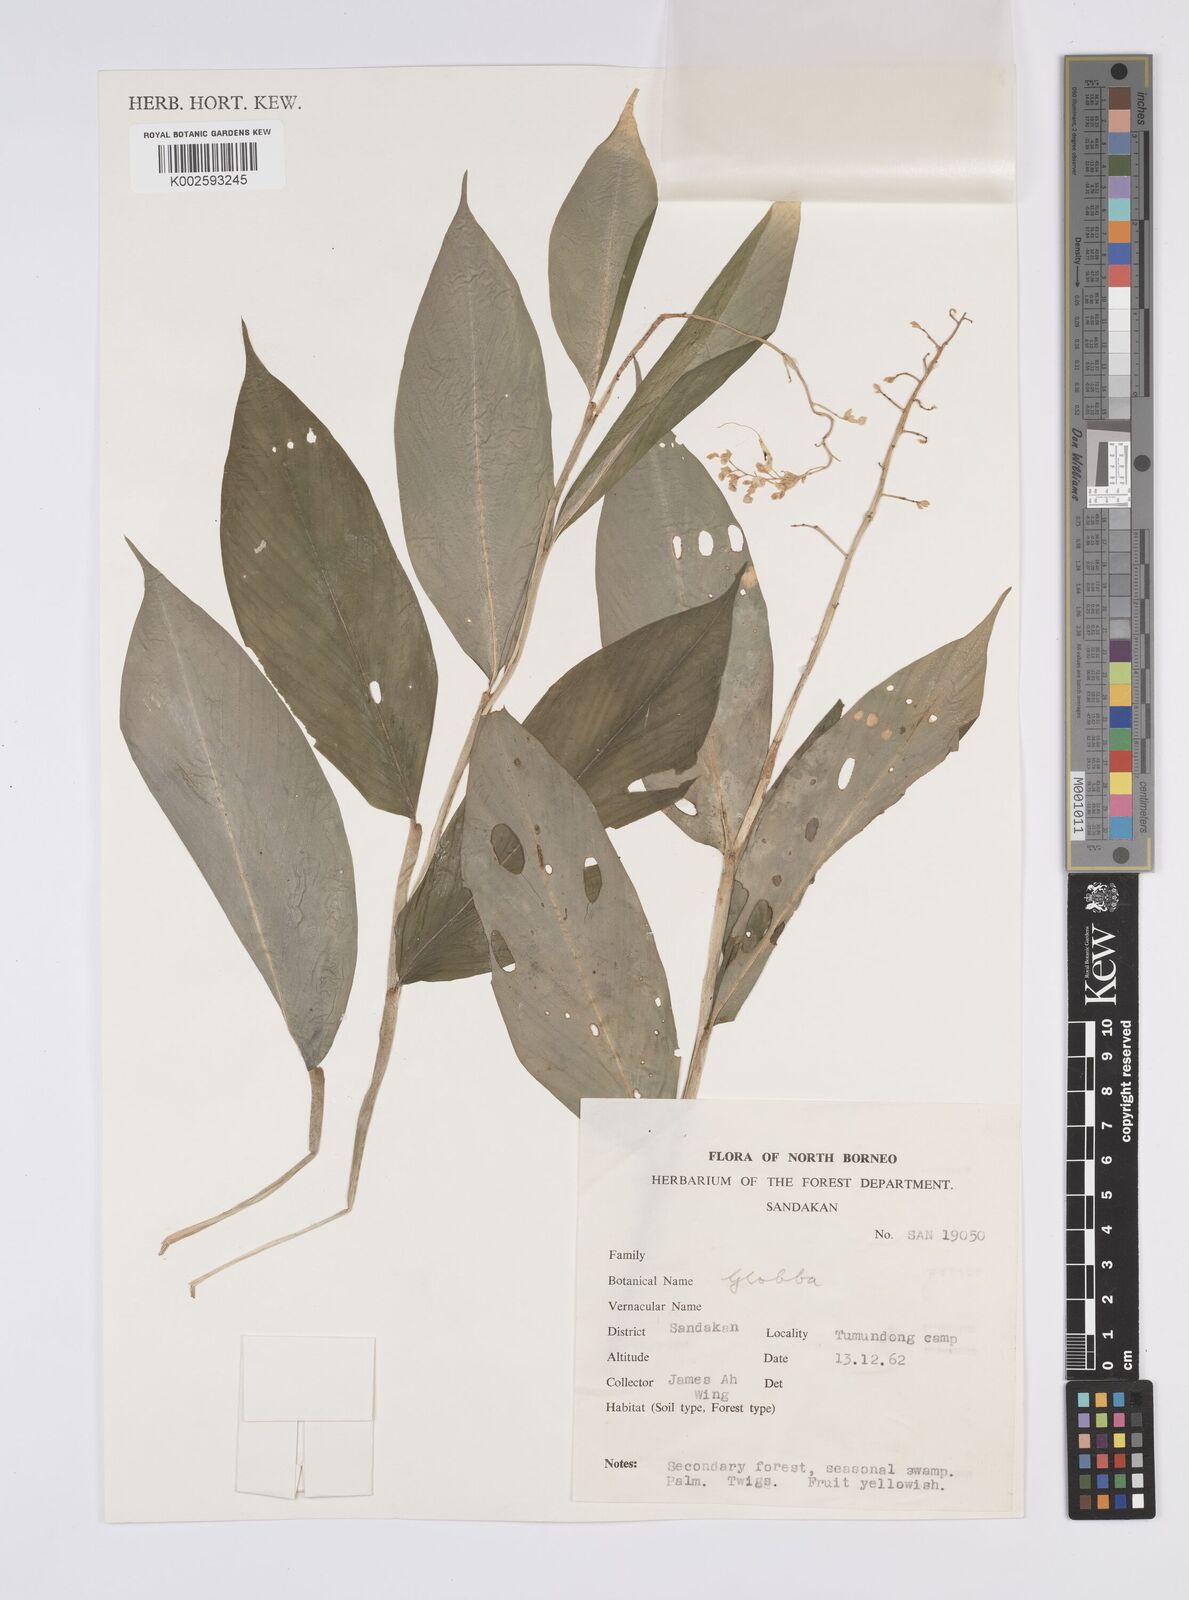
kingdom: Plantae
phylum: Tracheophyta
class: Liliopsida
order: Zingiberales
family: Zingiberaceae
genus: Globba
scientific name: Globba
